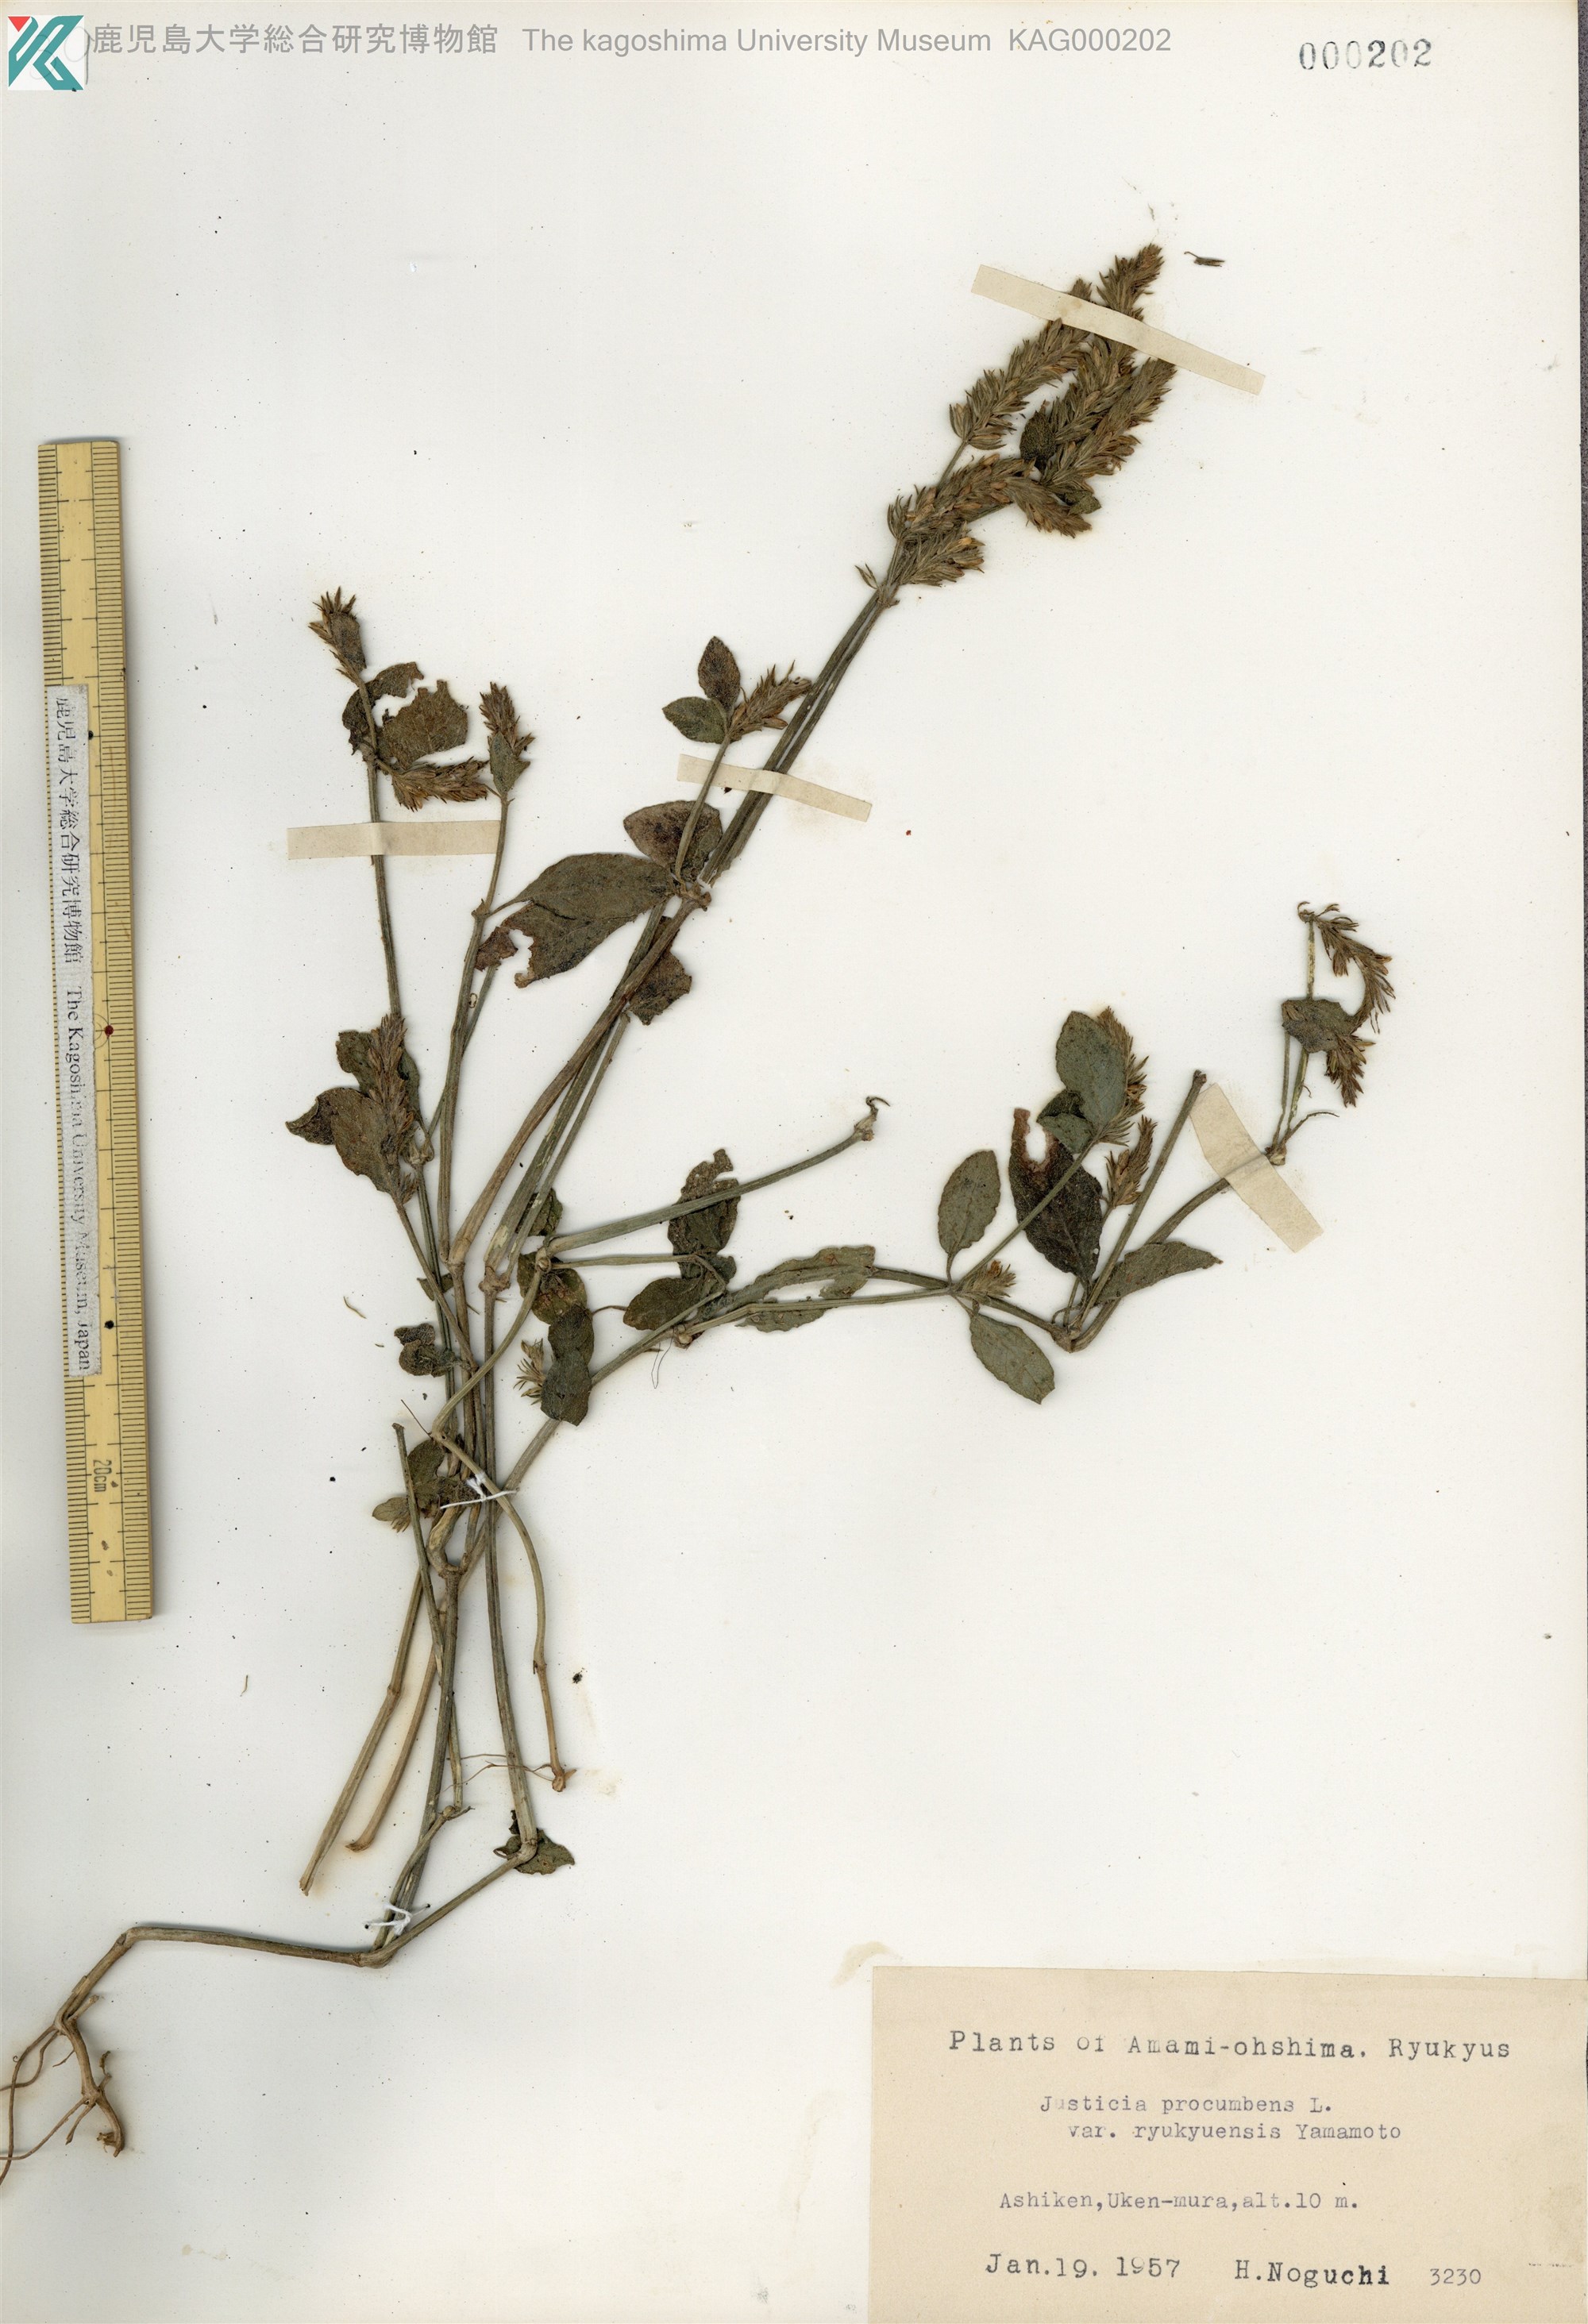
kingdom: Plantae
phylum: Tracheophyta
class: Magnoliopsida
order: Lamiales
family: Acanthaceae
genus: Rostellularia
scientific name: Rostellularia procumbens
